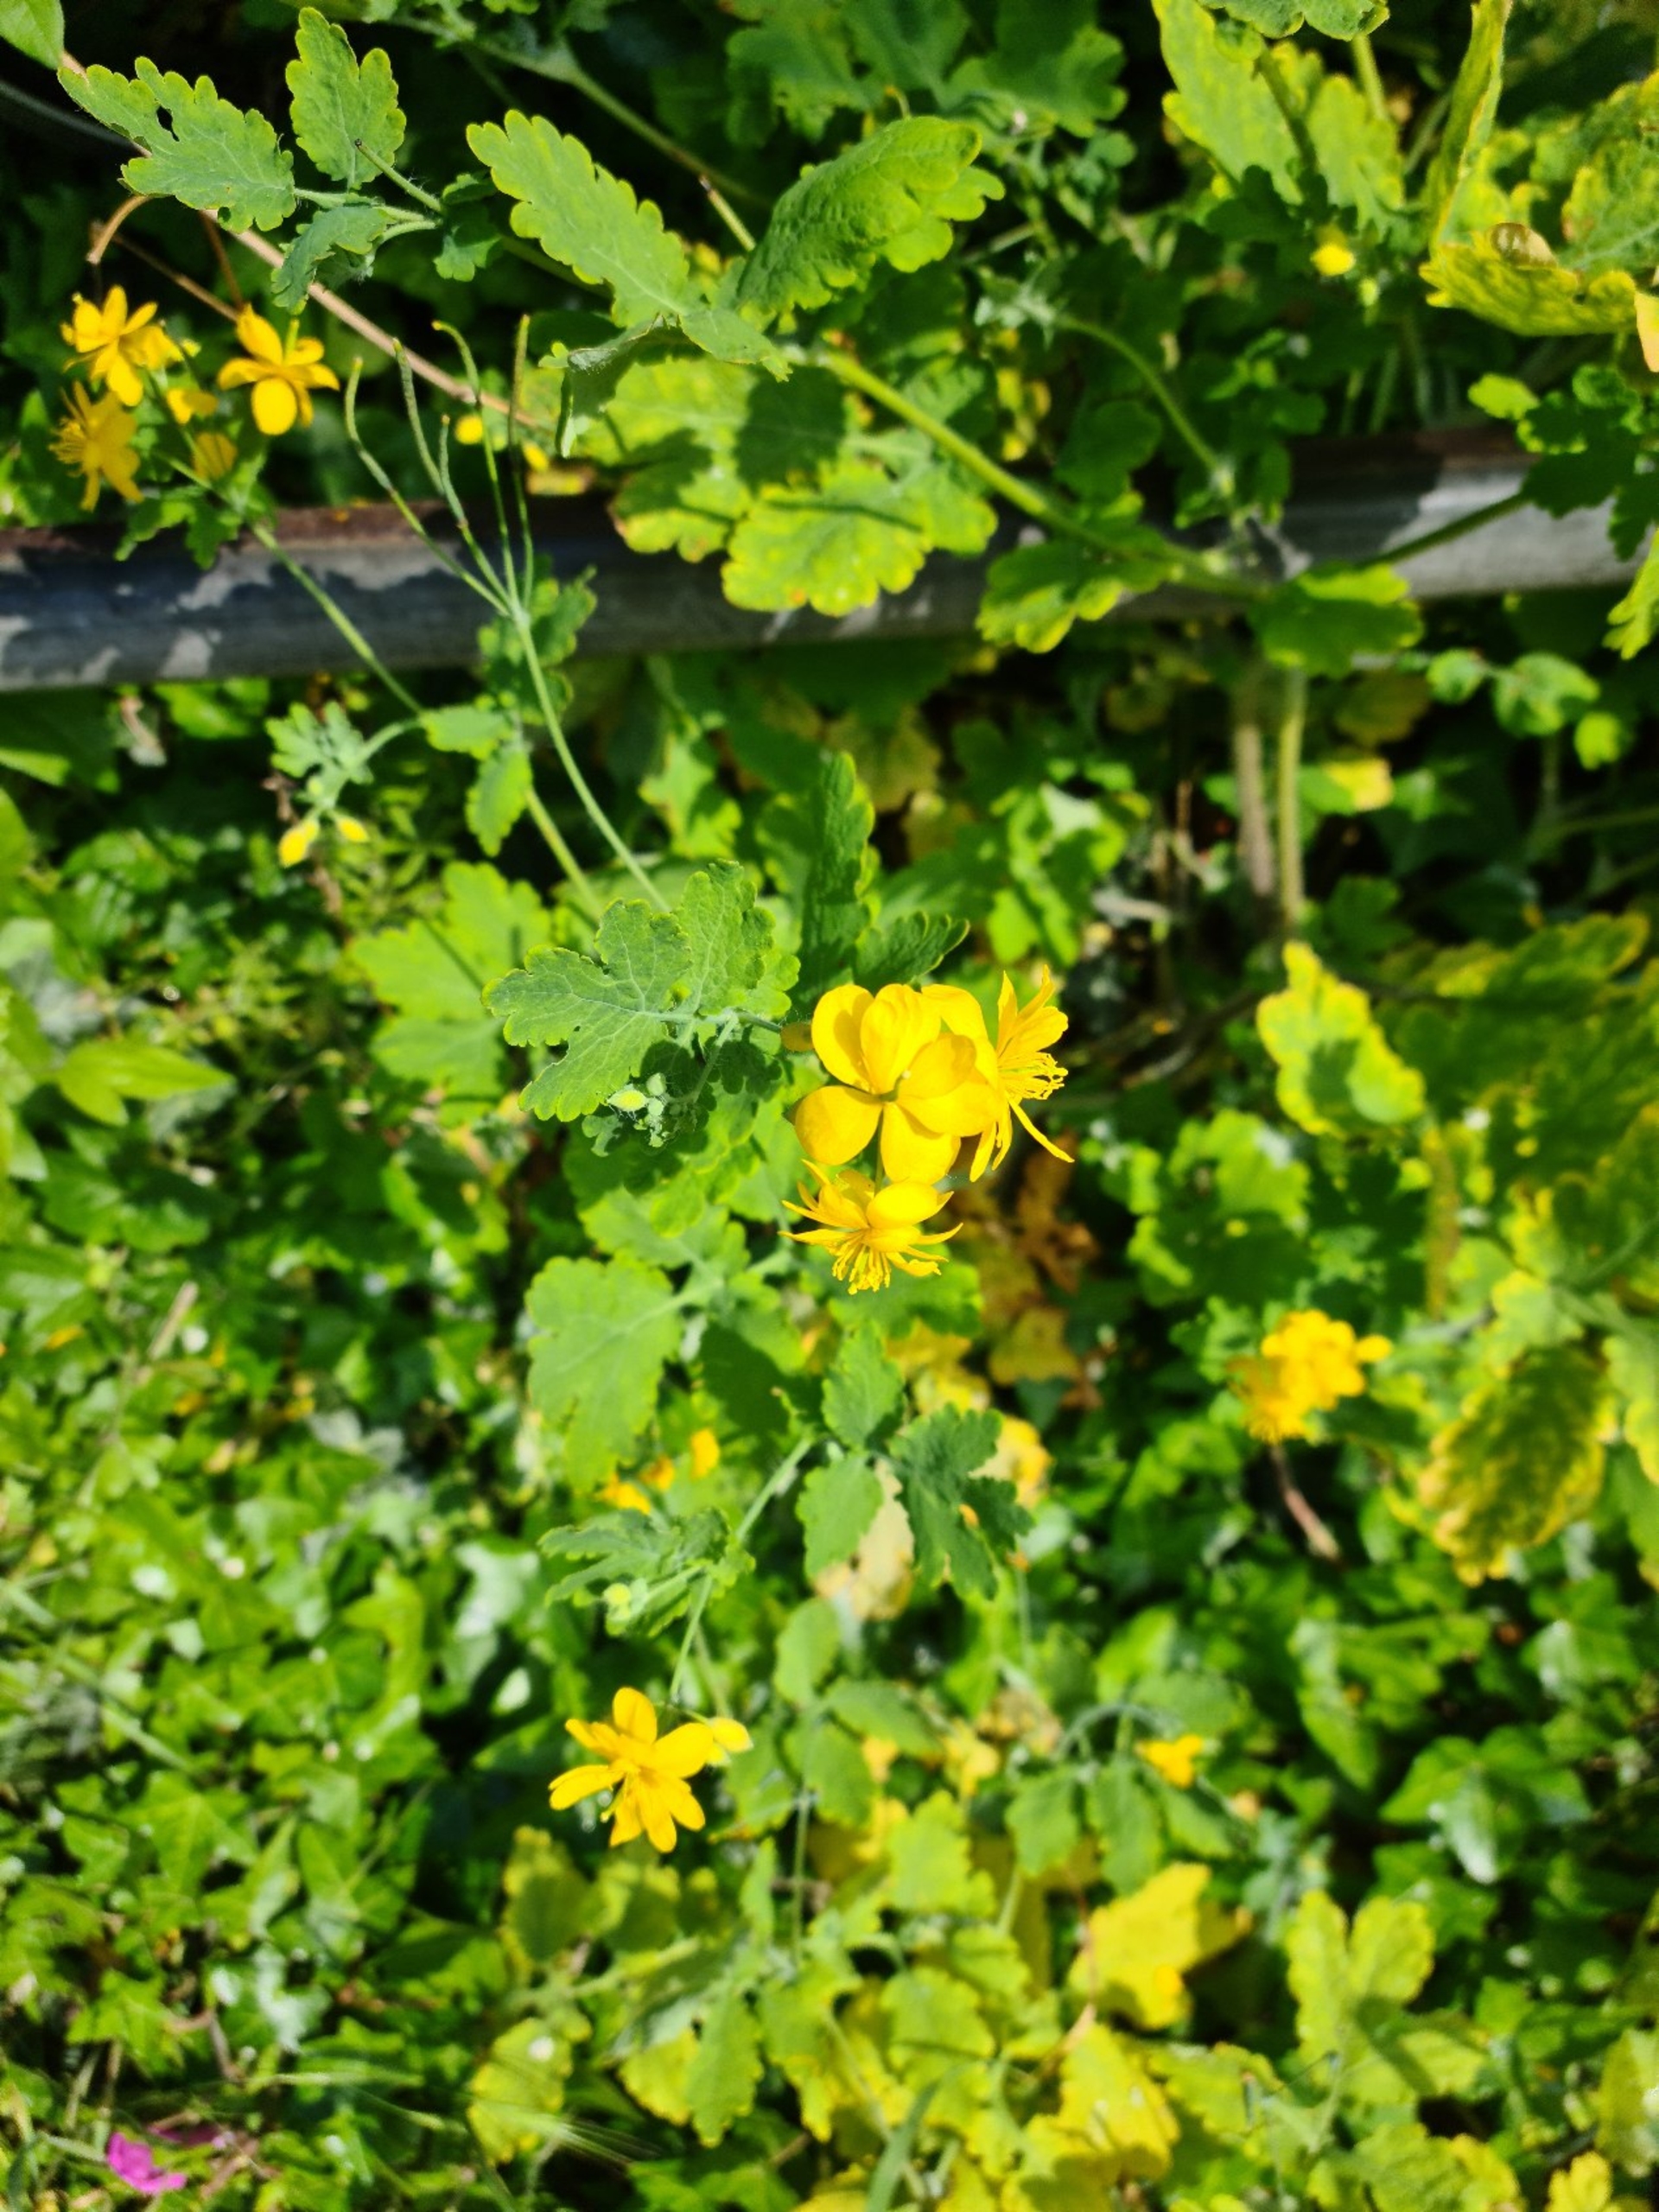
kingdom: Plantae
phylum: Tracheophyta
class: Magnoliopsida
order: Ranunculales
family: Papaveraceae
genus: Chelidonium
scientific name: Chelidonium majus
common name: Svaleurt
